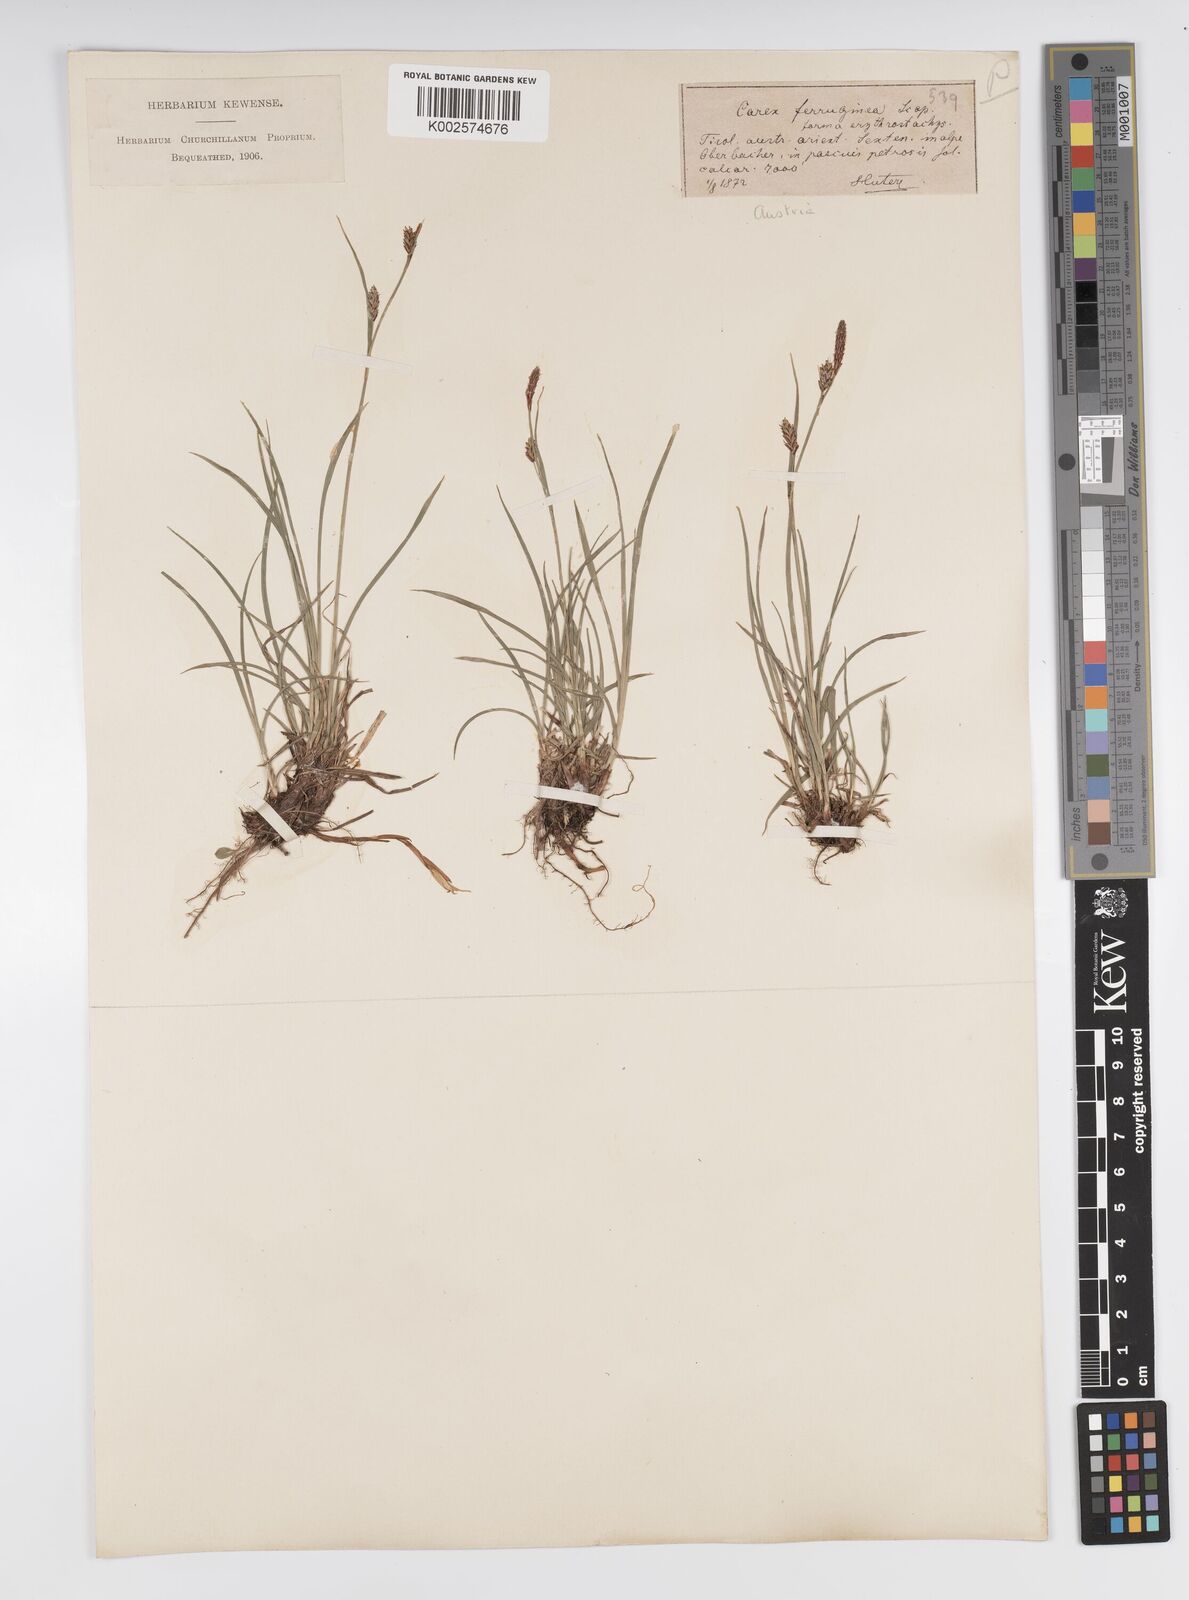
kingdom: Plantae
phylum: Tracheophyta
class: Liliopsida
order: Poales
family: Cyperaceae
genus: Carex
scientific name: Carex ferruginea
